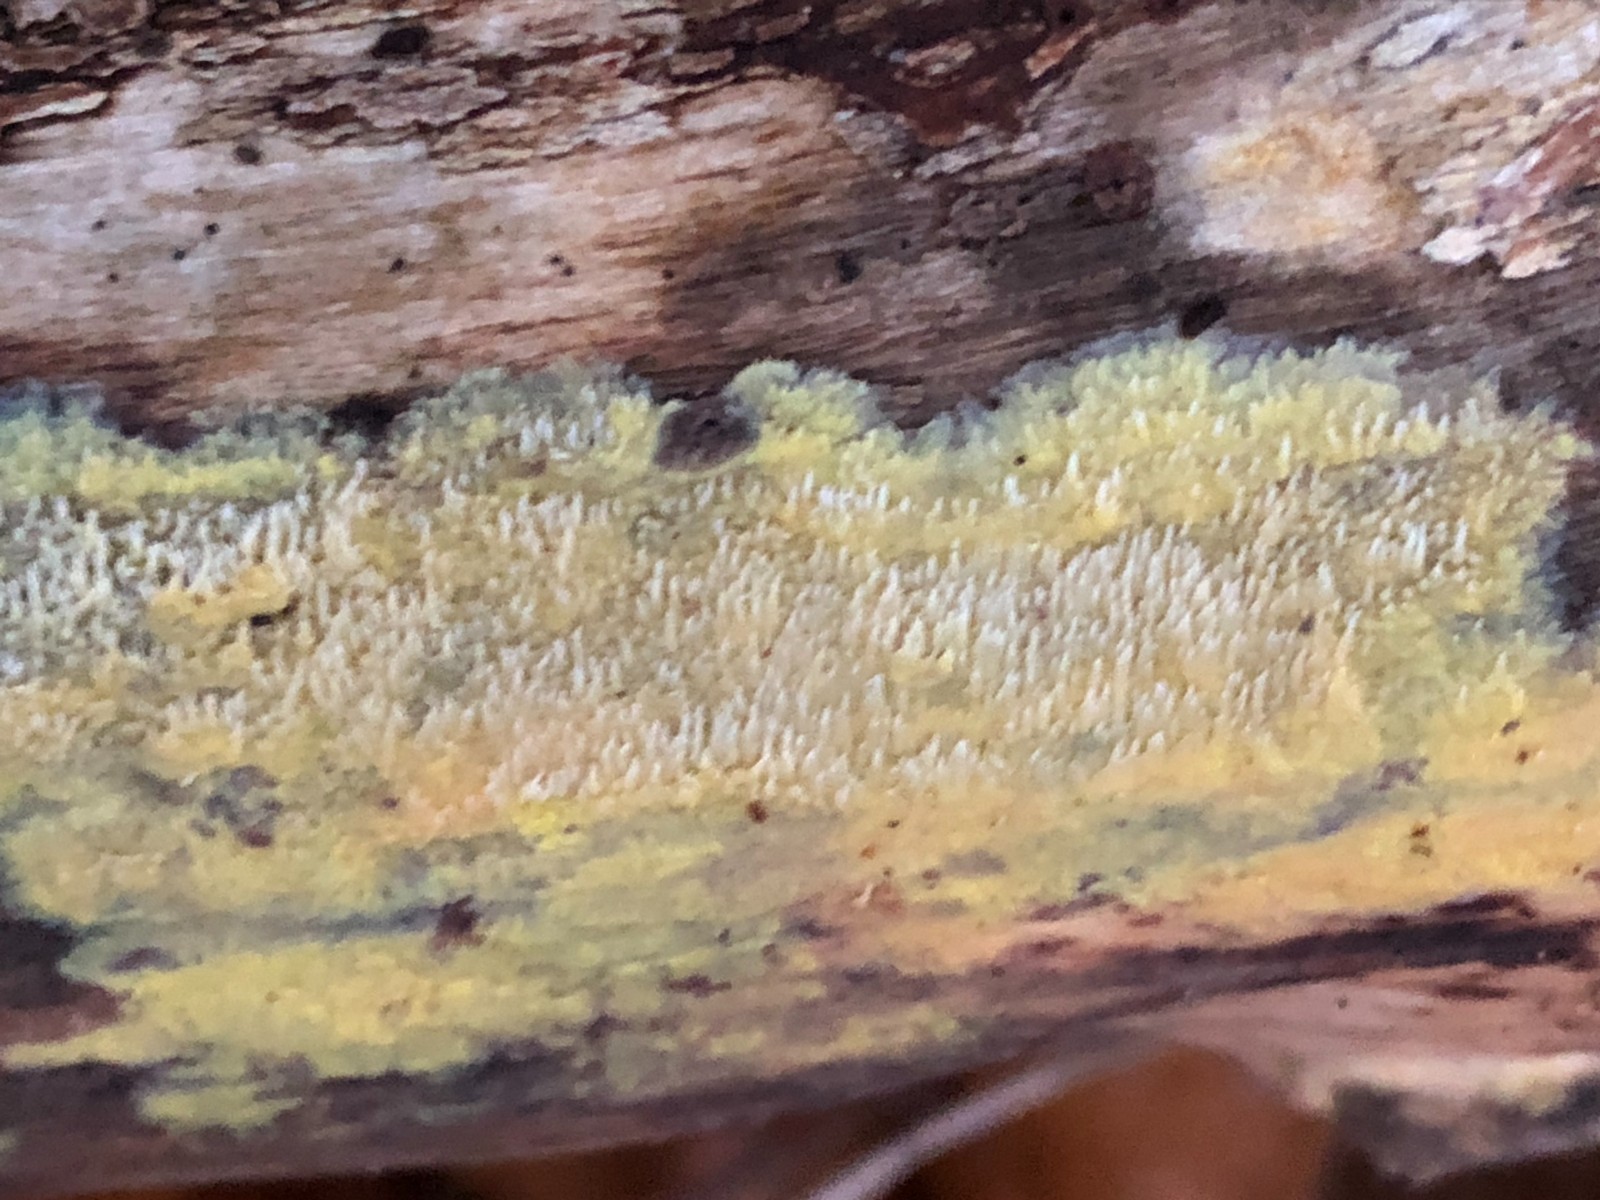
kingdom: Fungi
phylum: Basidiomycota
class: Agaricomycetes
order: Polyporales
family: Meruliaceae
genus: Mycoacia
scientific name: Mycoacia uda
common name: citrongul vokspig
